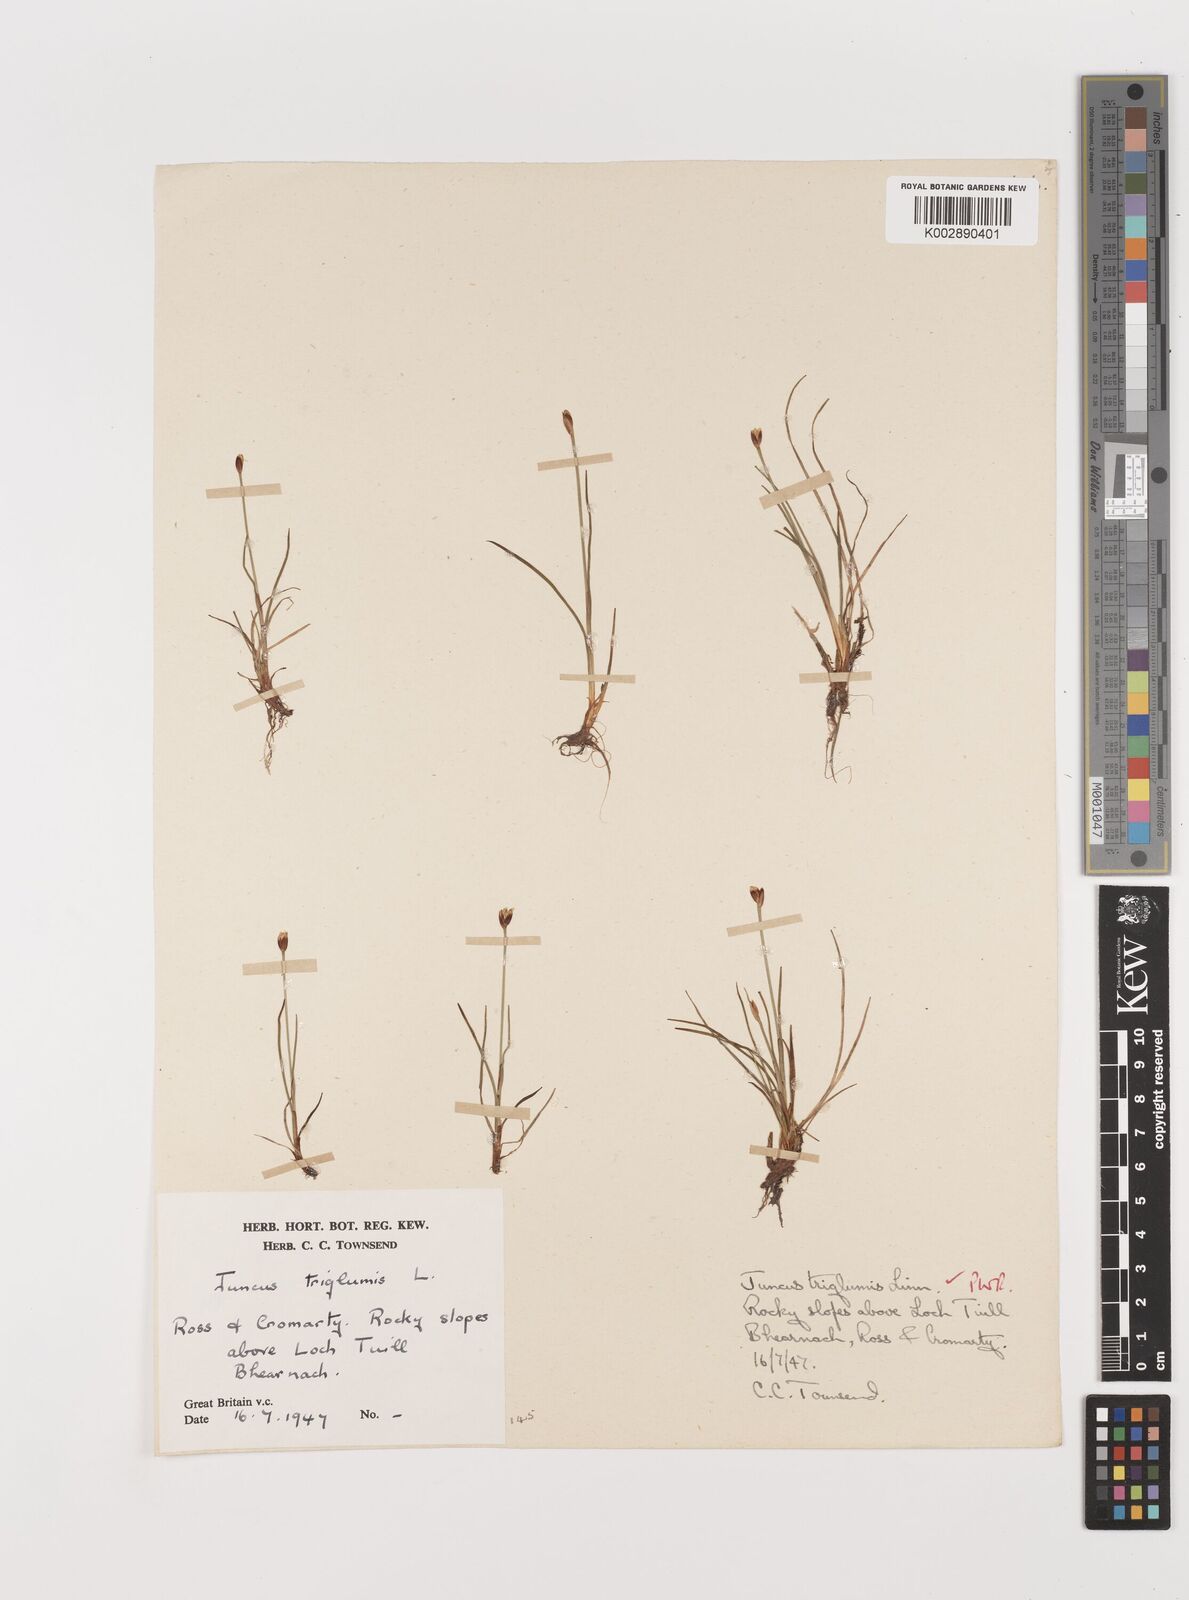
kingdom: Plantae
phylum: Tracheophyta
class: Liliopsida
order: Poales
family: Juncaceae
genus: Juncus
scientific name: Juncus triglumis
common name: Three-flowered rush
